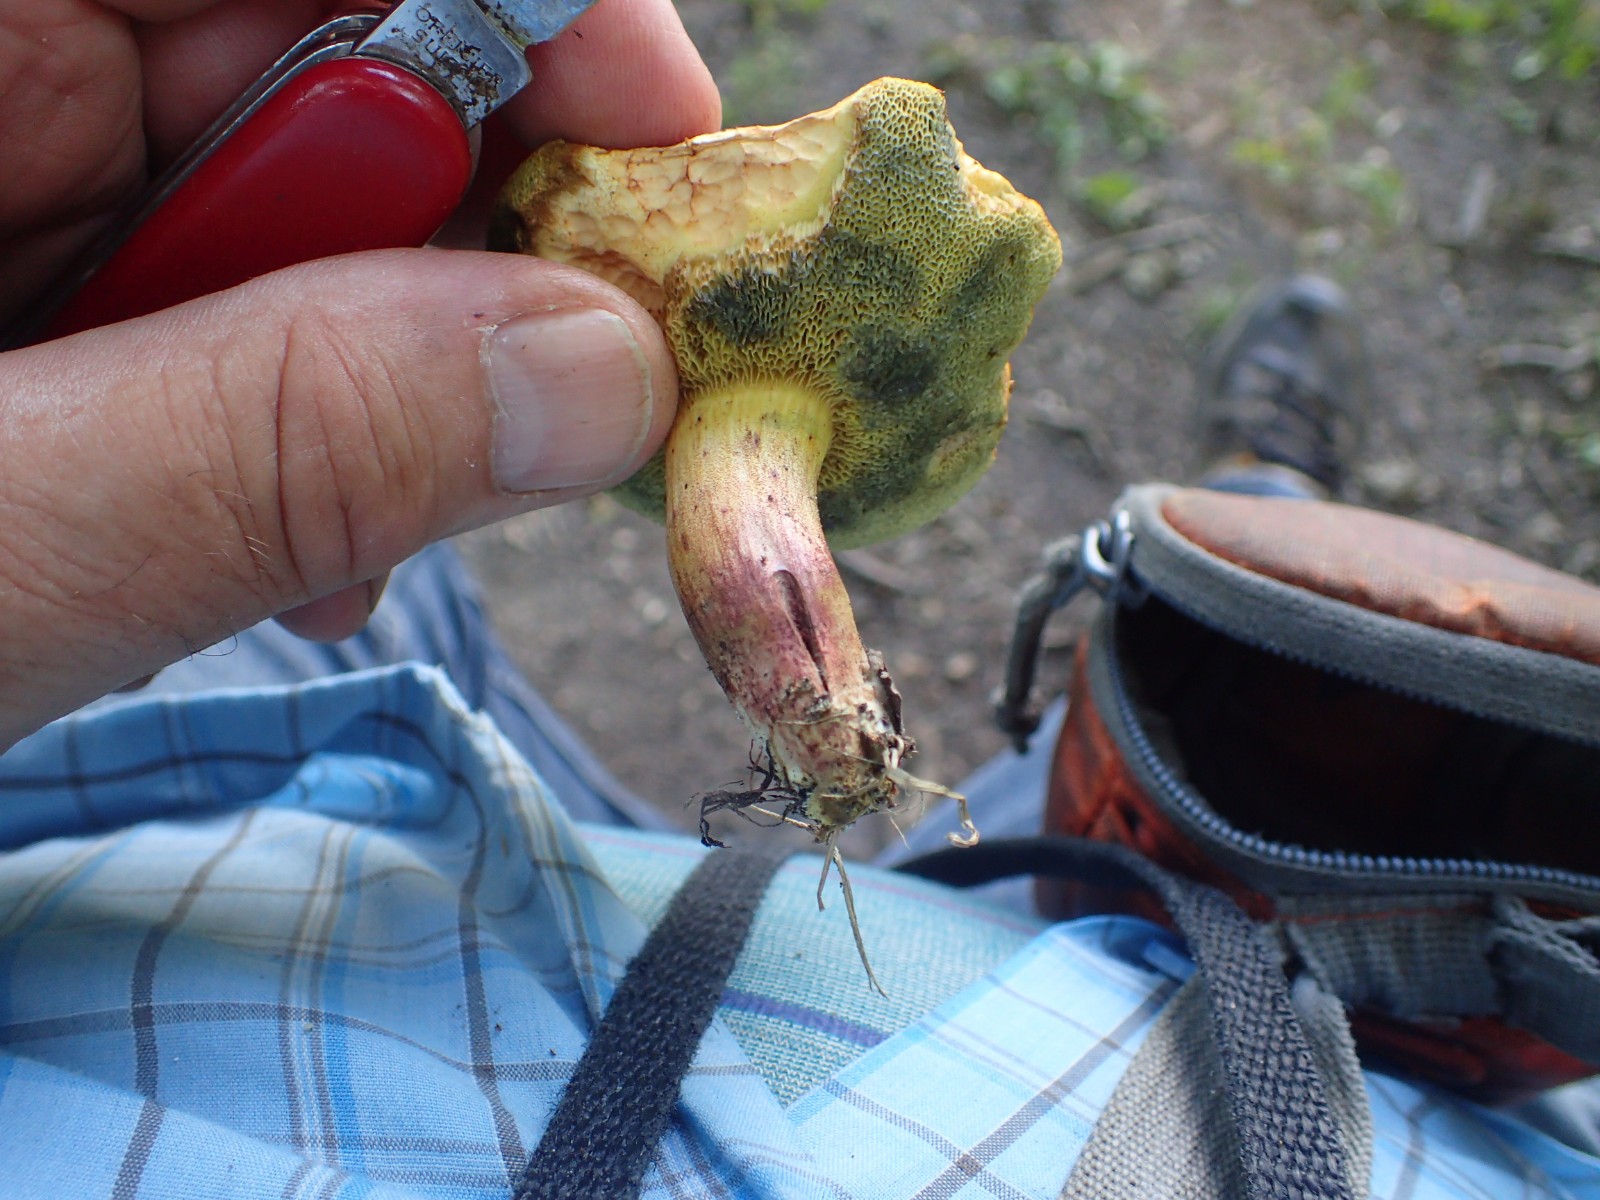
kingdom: Fungi
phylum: Basidiomycota
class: Agaricomycetes
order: Boletales
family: Boletaceae
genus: Hortiboletus
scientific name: Hortiboletus engelii
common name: fersken-rørhat
